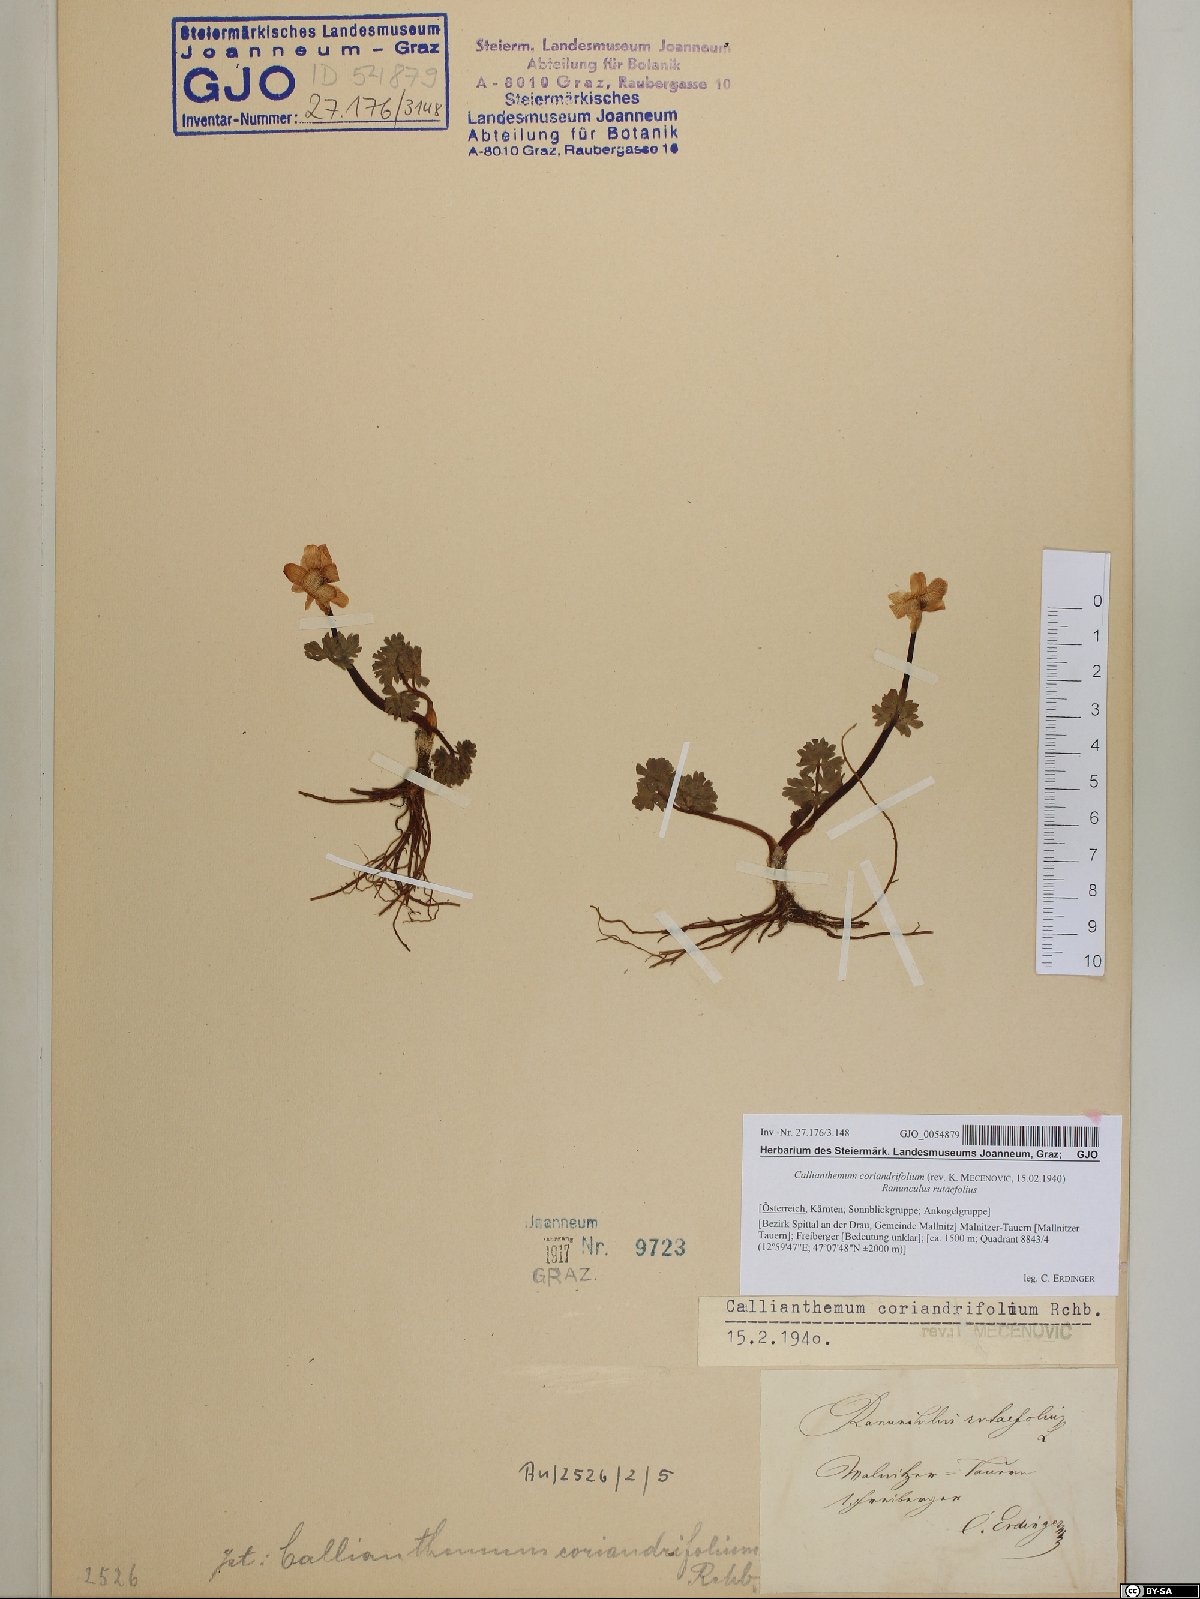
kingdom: Plantae
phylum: Tracheophyta
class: Magnoliopsida
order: Ranunculales
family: Ranunculaceae
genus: Callianthemum
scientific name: Callianthemum coriandrifolium
